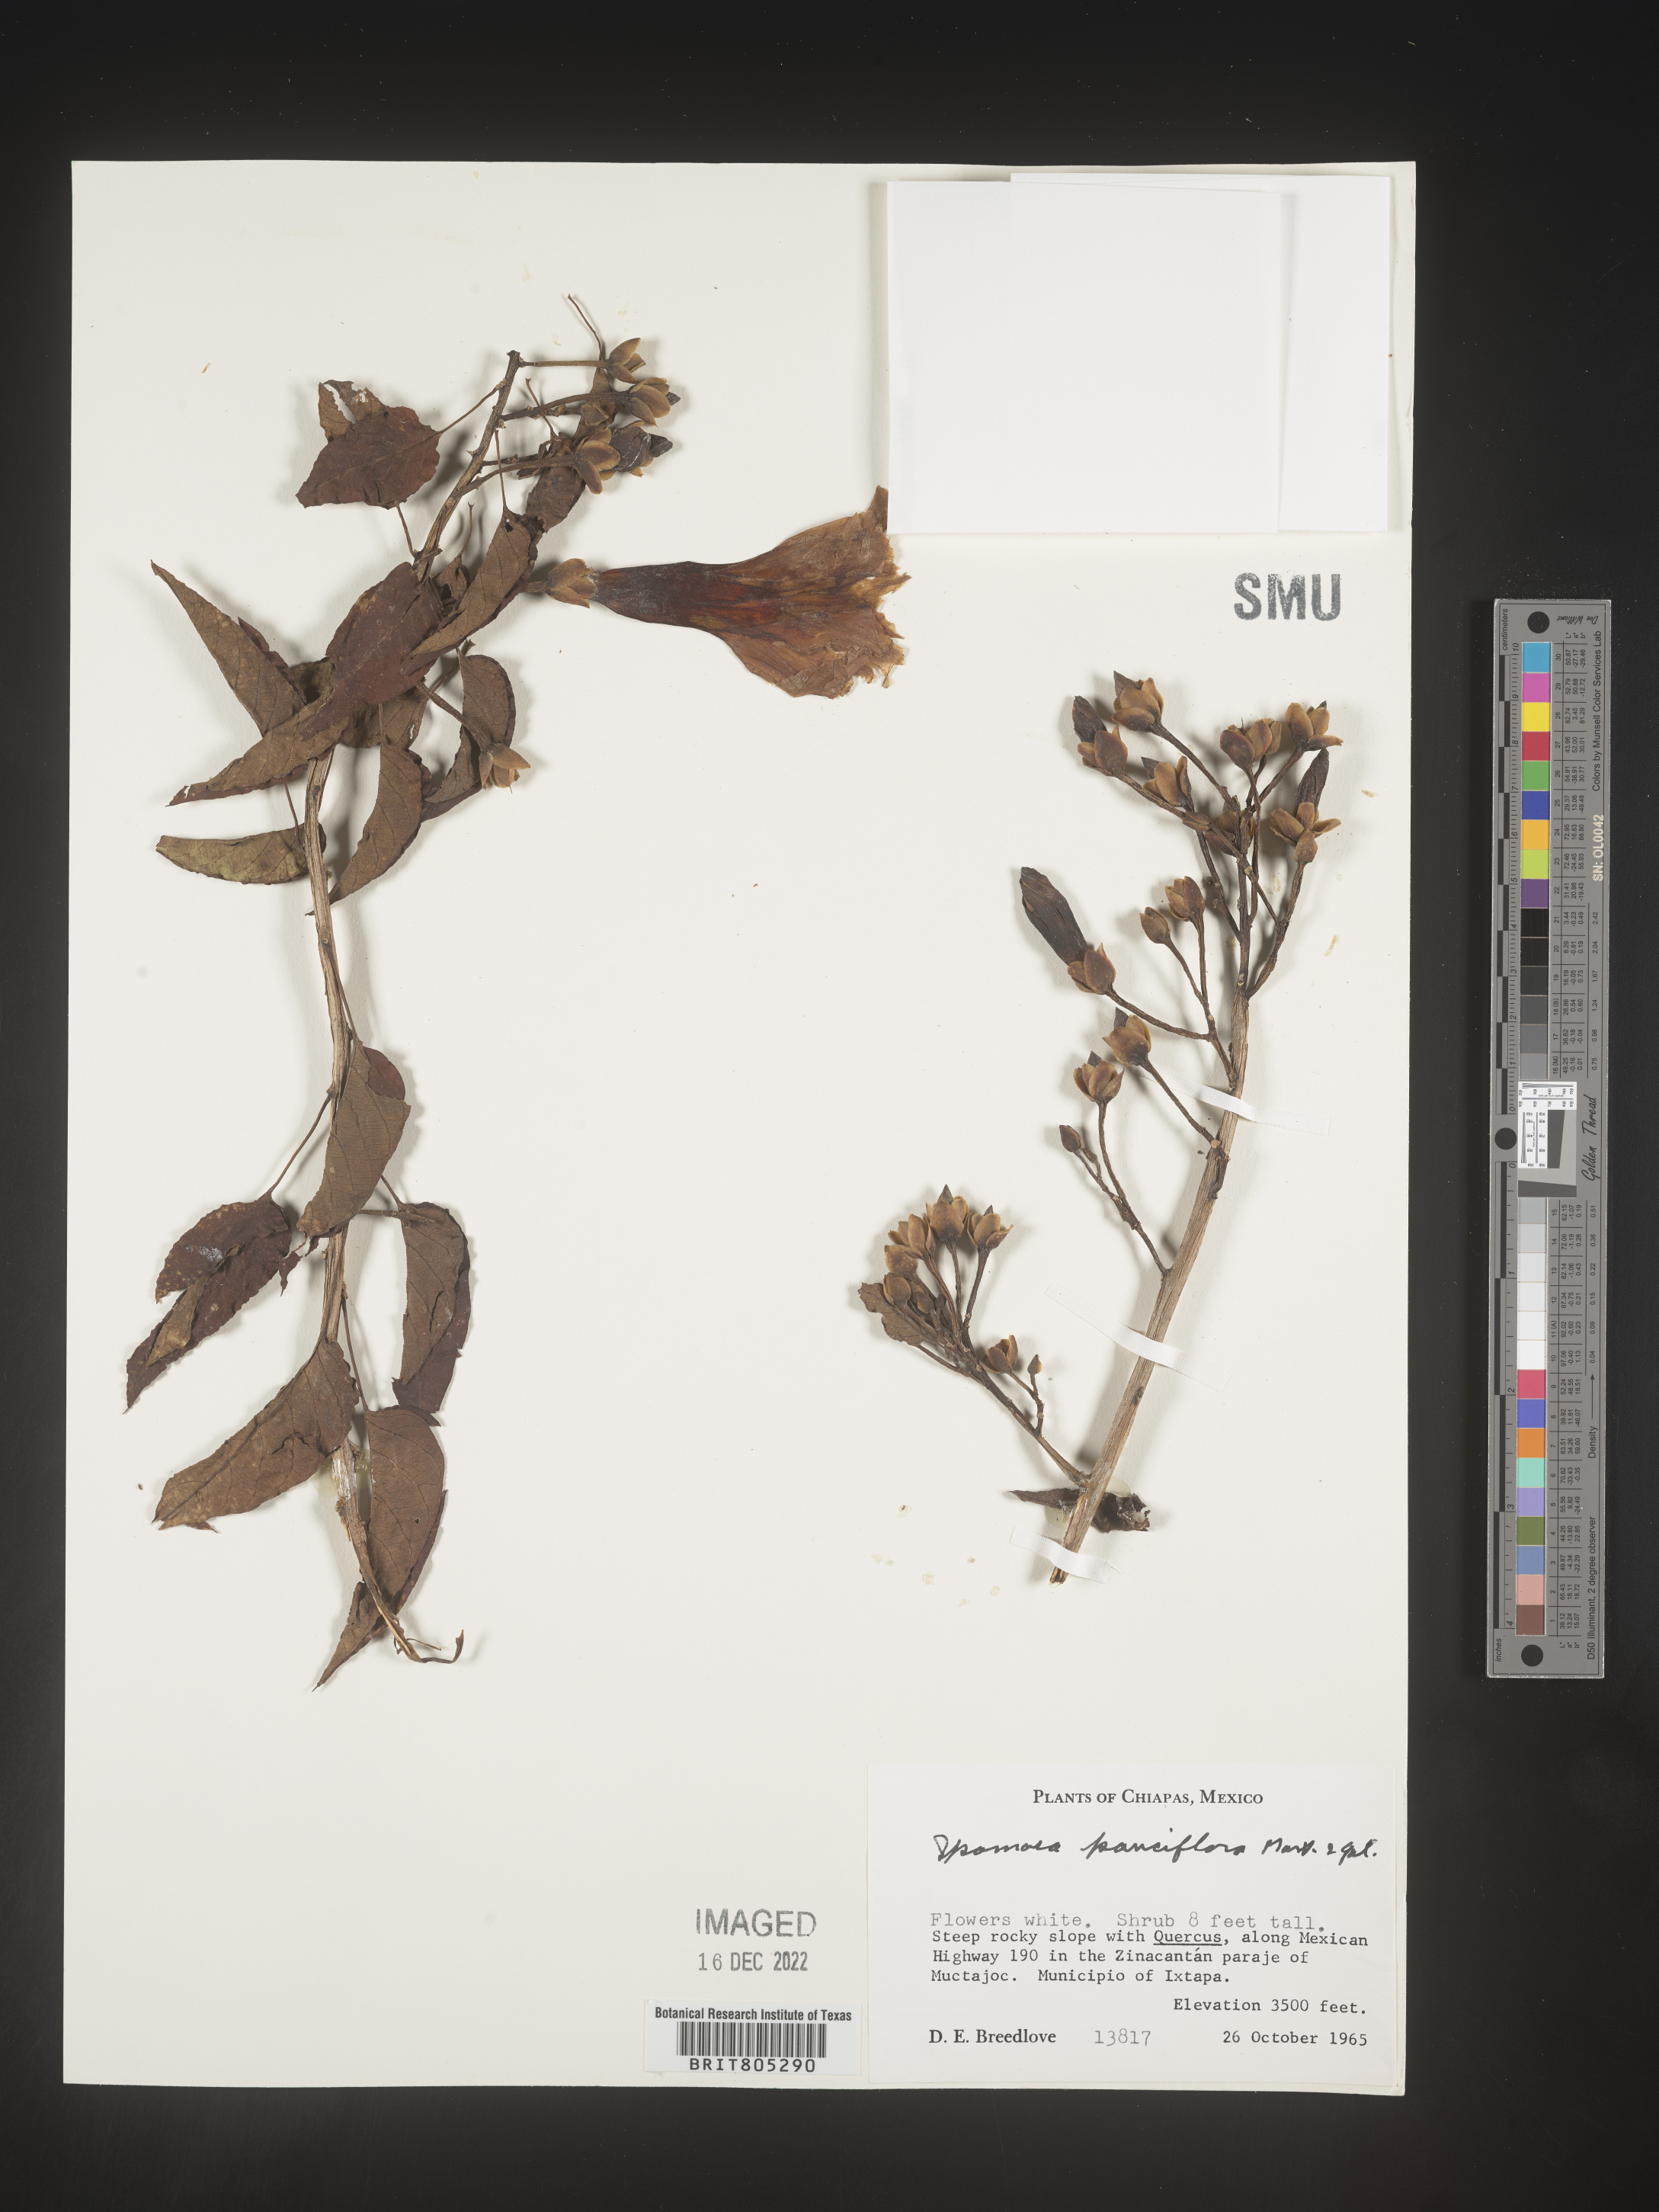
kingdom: Plantae
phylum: Tracheophyta
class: Magnoliopsida
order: Solanales
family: Convolvulaceae
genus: Ipomoea
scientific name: Ipomoea
